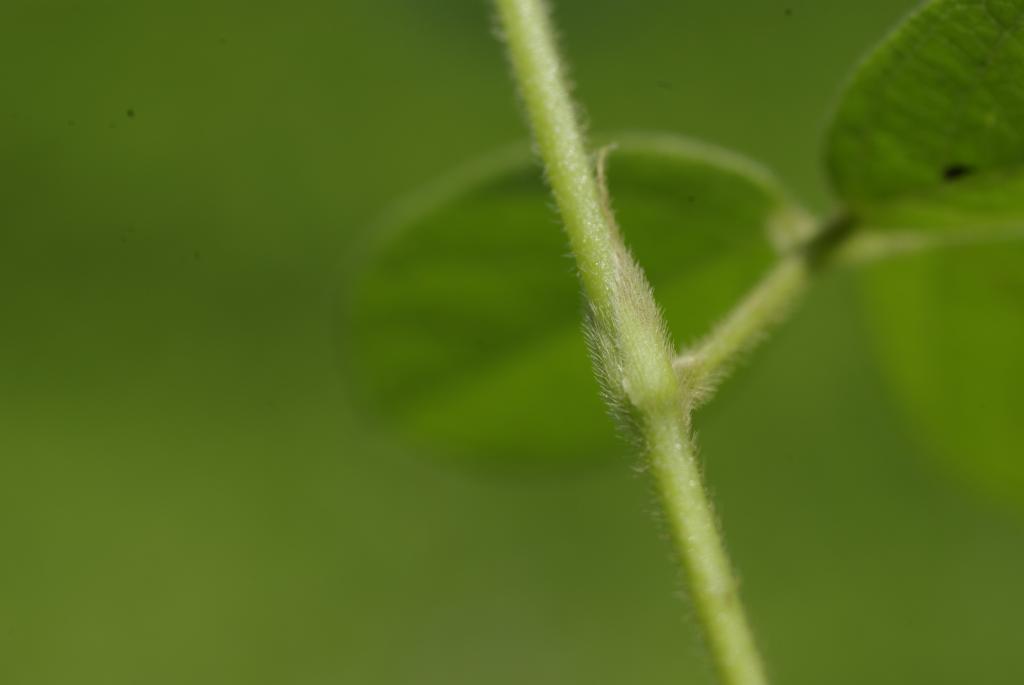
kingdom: Plantae
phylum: Tracheophyta
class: Magnoliopsida
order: Fabales
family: Fabaceae
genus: Pycnospora
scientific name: Pycnospora lutescens
